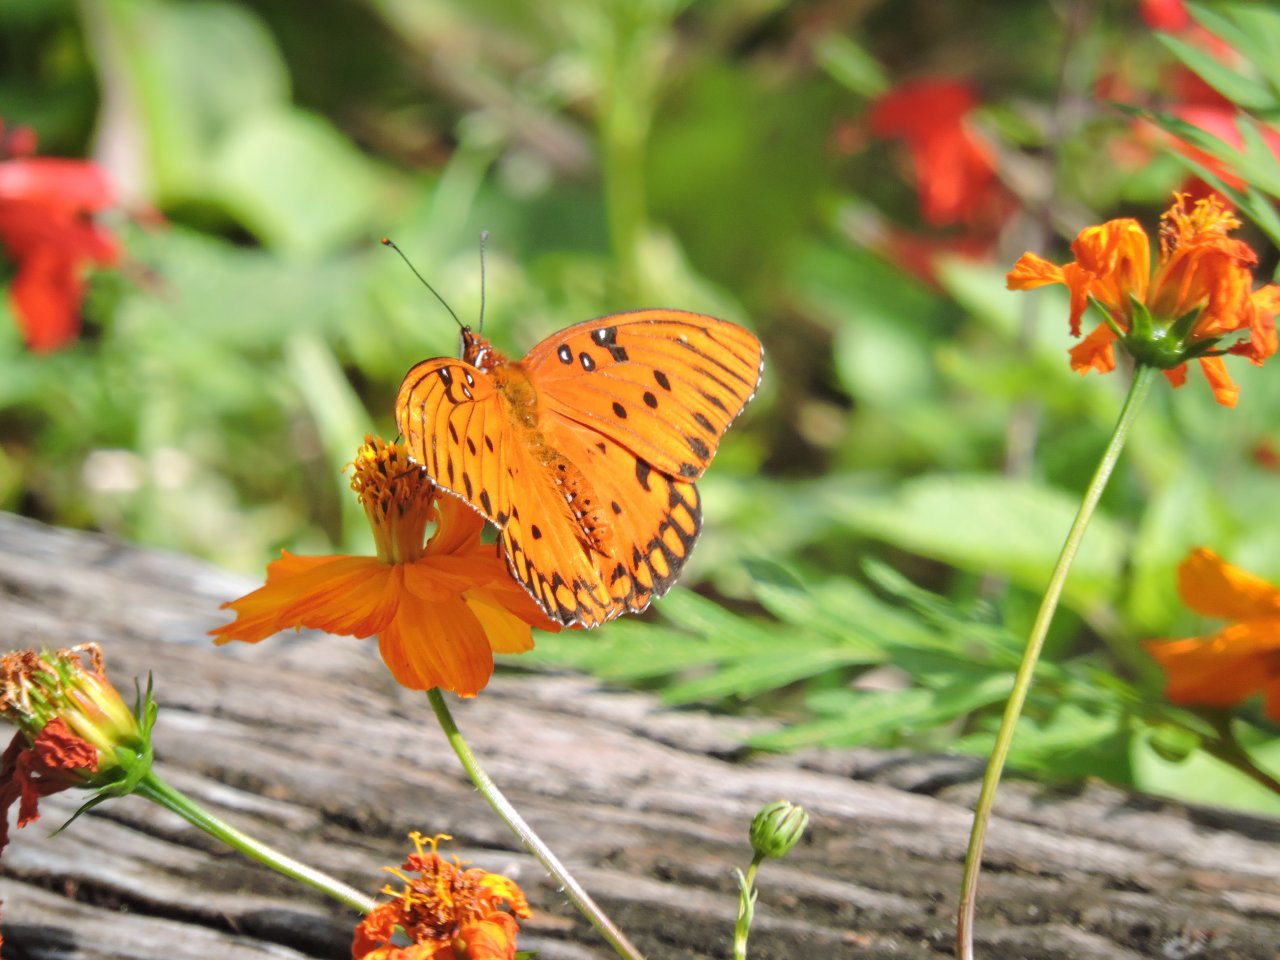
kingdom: Animalia
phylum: Arthropoda
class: Insecta
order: Lepidoptera
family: Nymphalidae
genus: Dione
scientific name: Dione vanillae
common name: Gulf Fritillary
